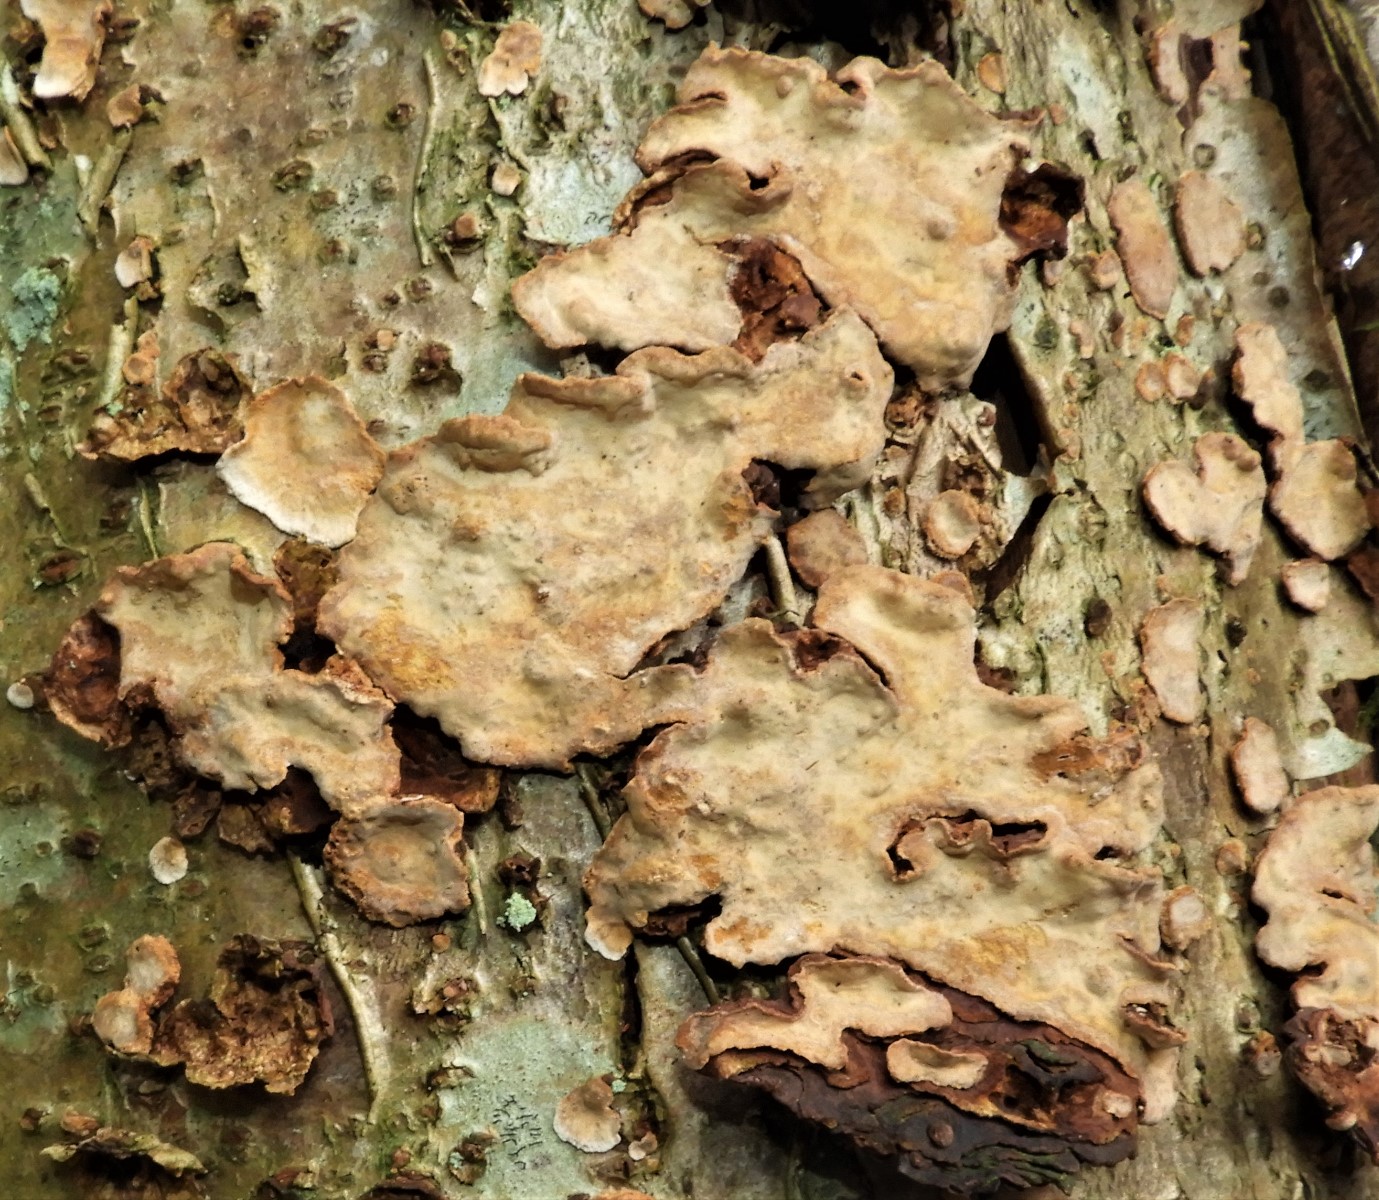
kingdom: Fungi
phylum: Basidiomycota
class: Agaricomycetes
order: Russulales
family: Stereaceae
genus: Stereum
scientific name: Stereum rugosum
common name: rynket lædersvamp
